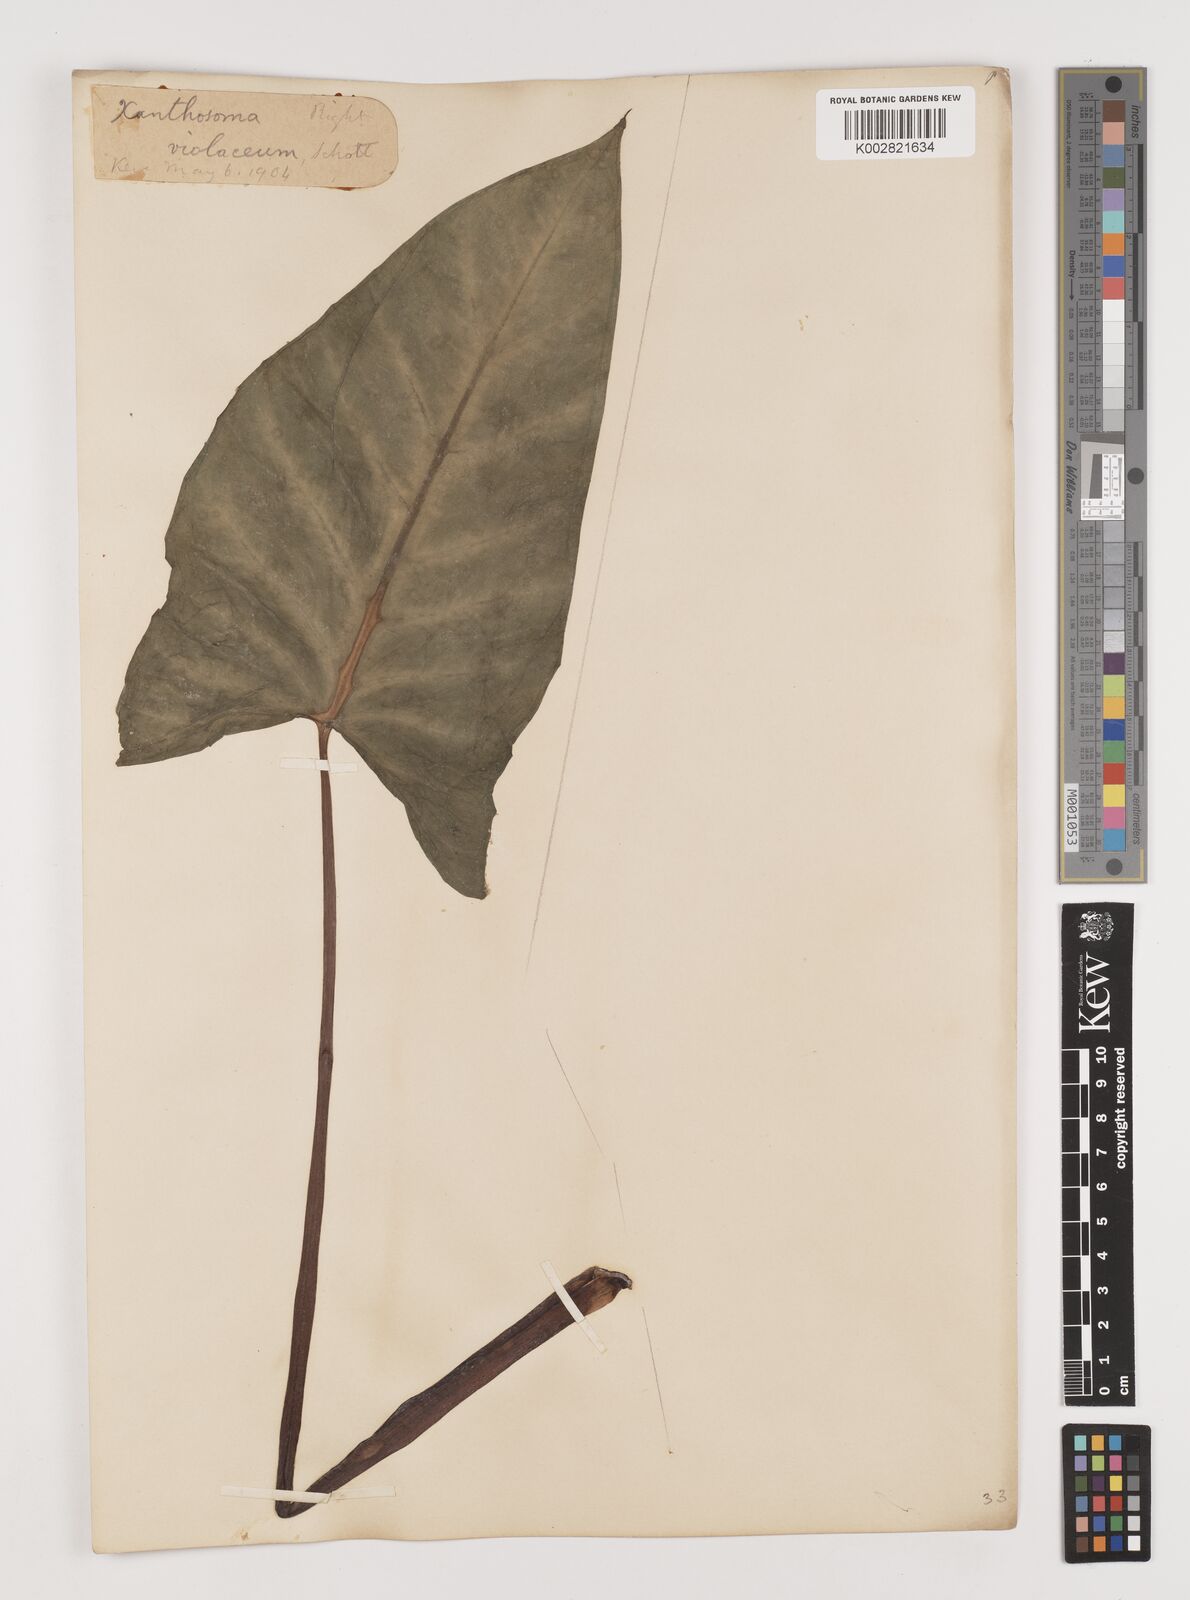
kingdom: Plantae
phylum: Tracheophyta
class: Liliopsida
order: Alismatales
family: Araceae
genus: Xanthosoma
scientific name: Xanthosoma sagittifolium
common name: Arrowleaf elephant's ear
